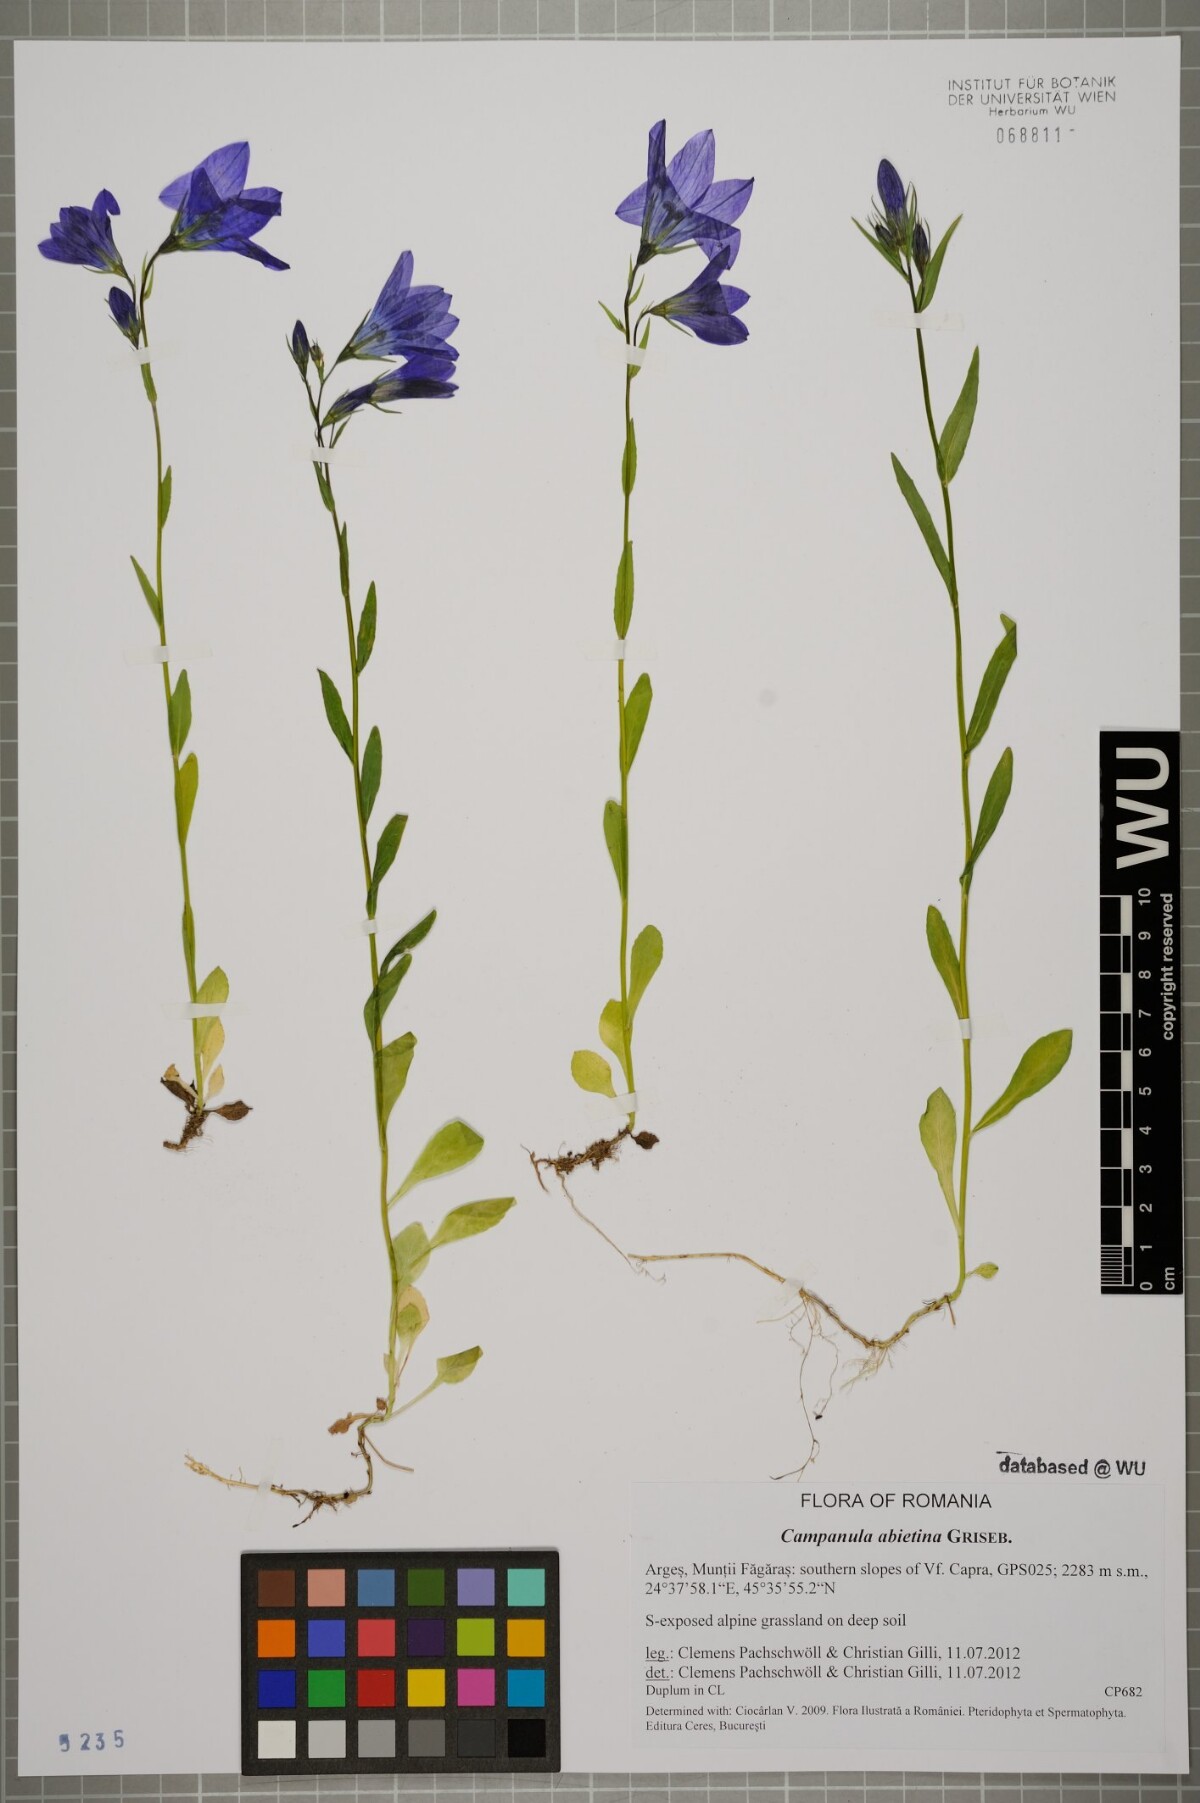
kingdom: Plantae
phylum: Tracheophyta
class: Magnoliopsida
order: Asterales
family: Campanulaceae
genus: Campanula
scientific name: Campanula patula
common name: Spreading bellflower
